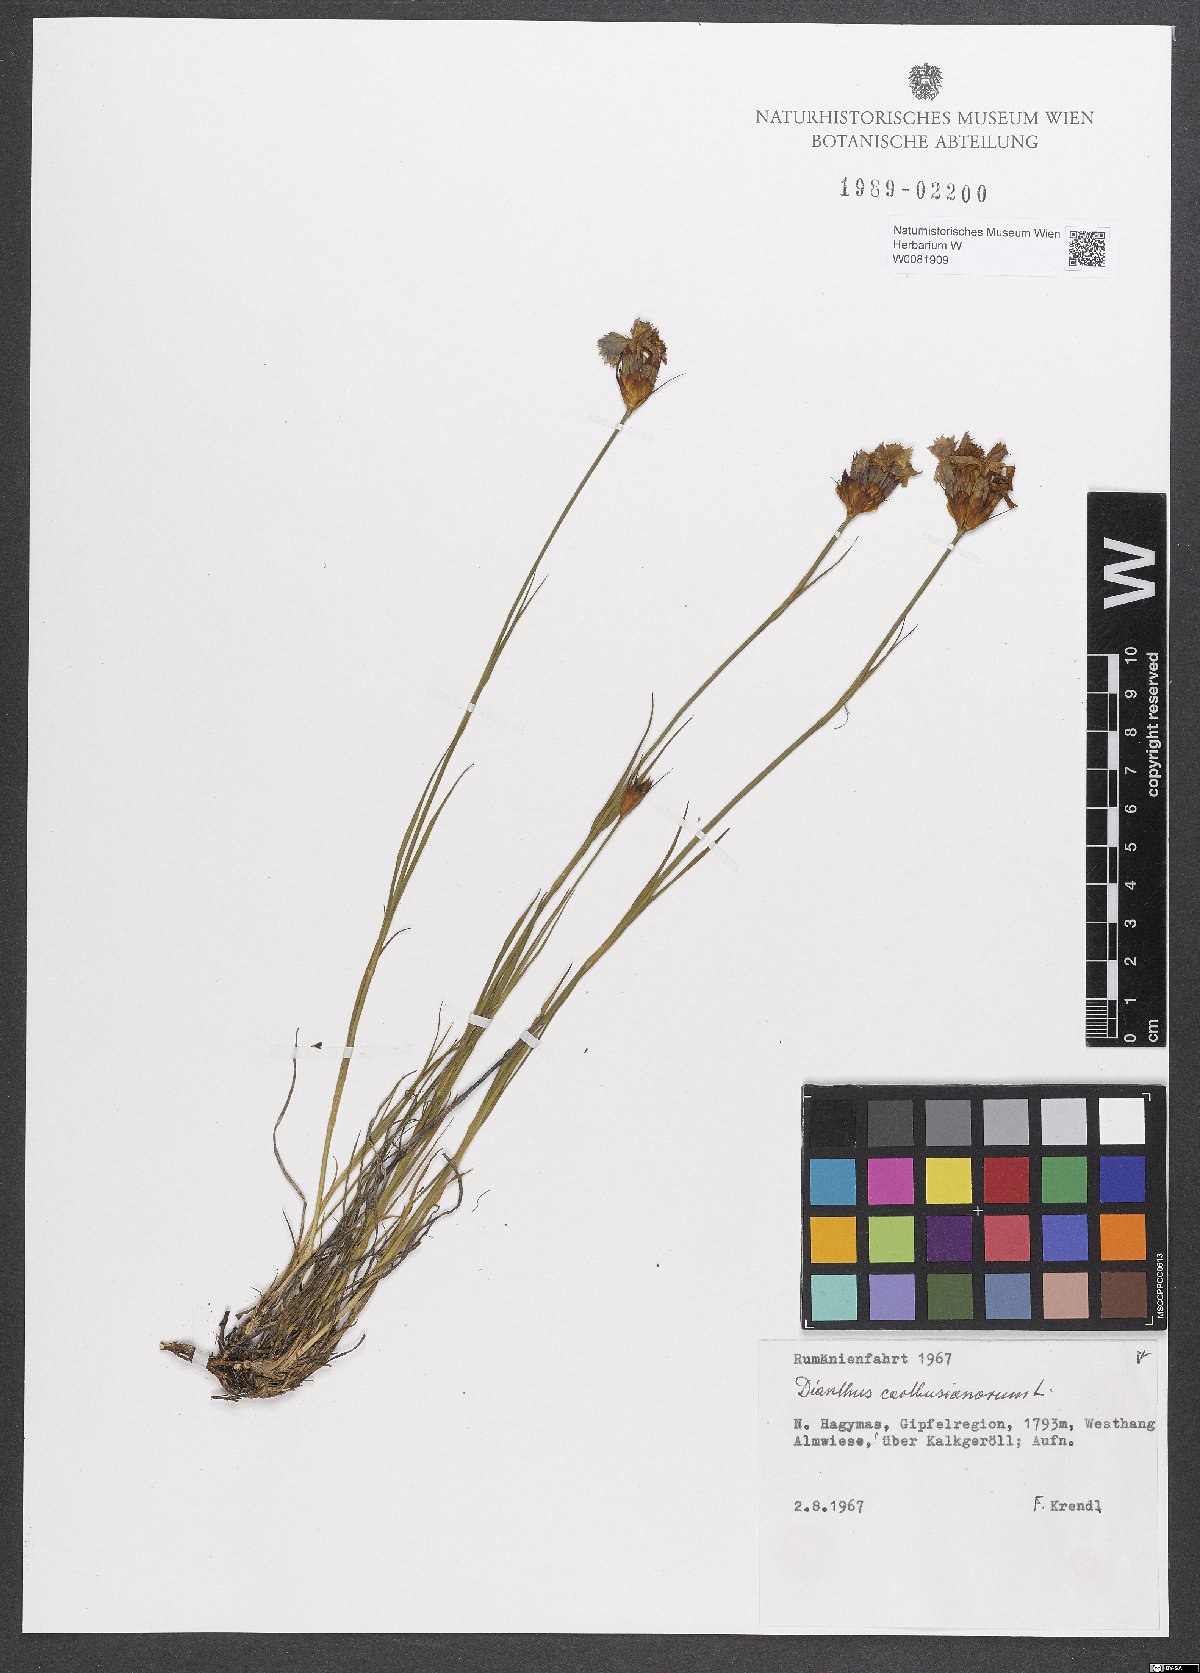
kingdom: Plantae
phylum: Tracheophyta
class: Magnoliopsida
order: Caryophyllales
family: Caryophyllaceae
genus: Dianthus
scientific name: Dianthus carthusianorum
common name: Carthusian pink
